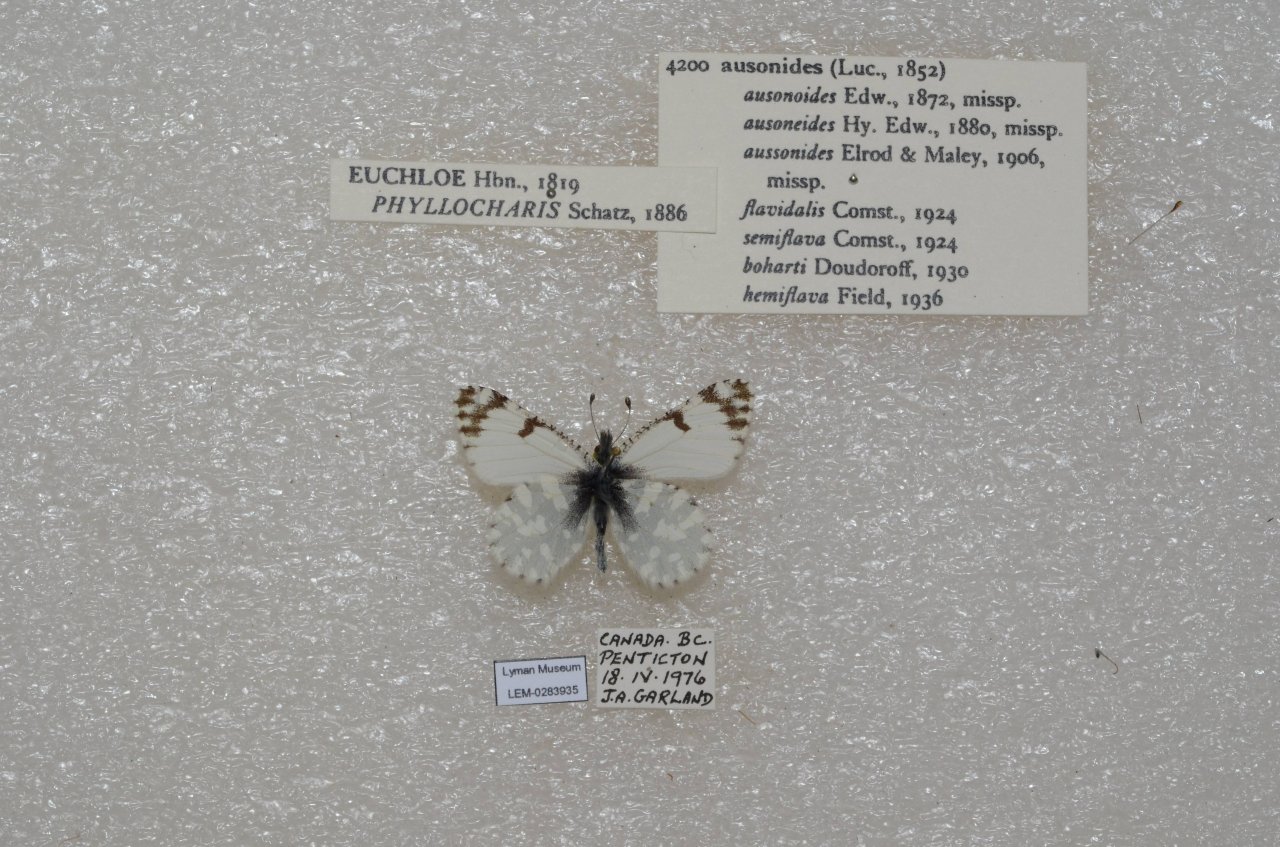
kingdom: Animalia
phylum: Arthropoda
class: Insecta
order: Lepidoptera
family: Pieridae
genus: Euchloe
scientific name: Euchloe ausonides
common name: Large Marble
